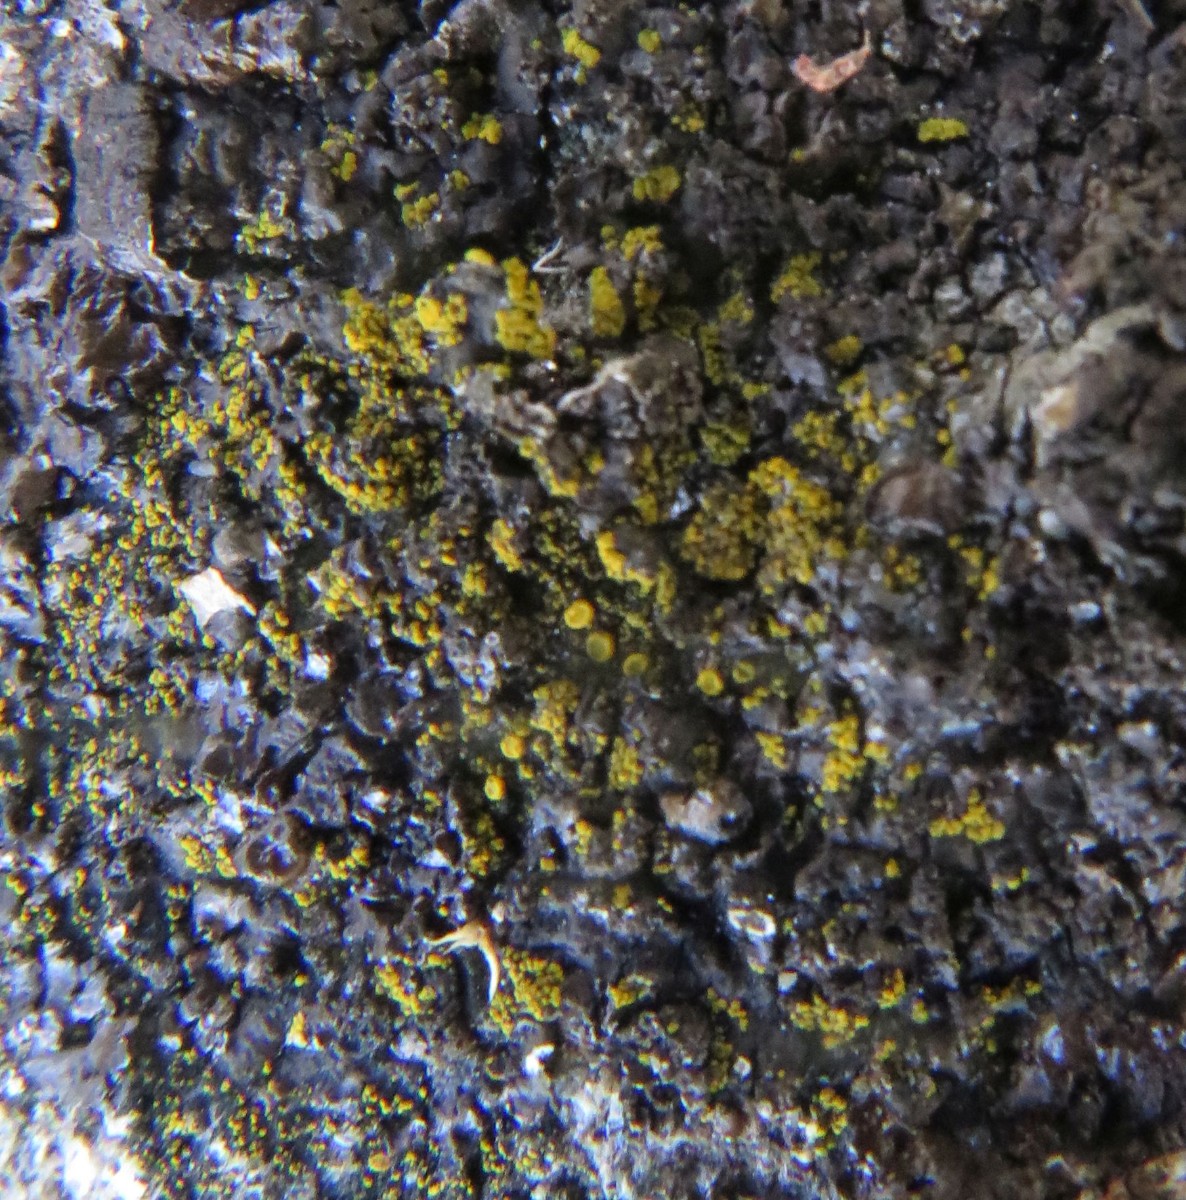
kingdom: Fungi
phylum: Ascomycota
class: Candelariomycetes
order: Candelariales
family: Candelariaceae
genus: Candelariella
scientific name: Candelariella vitellina
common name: almindelig æggeblommelav
